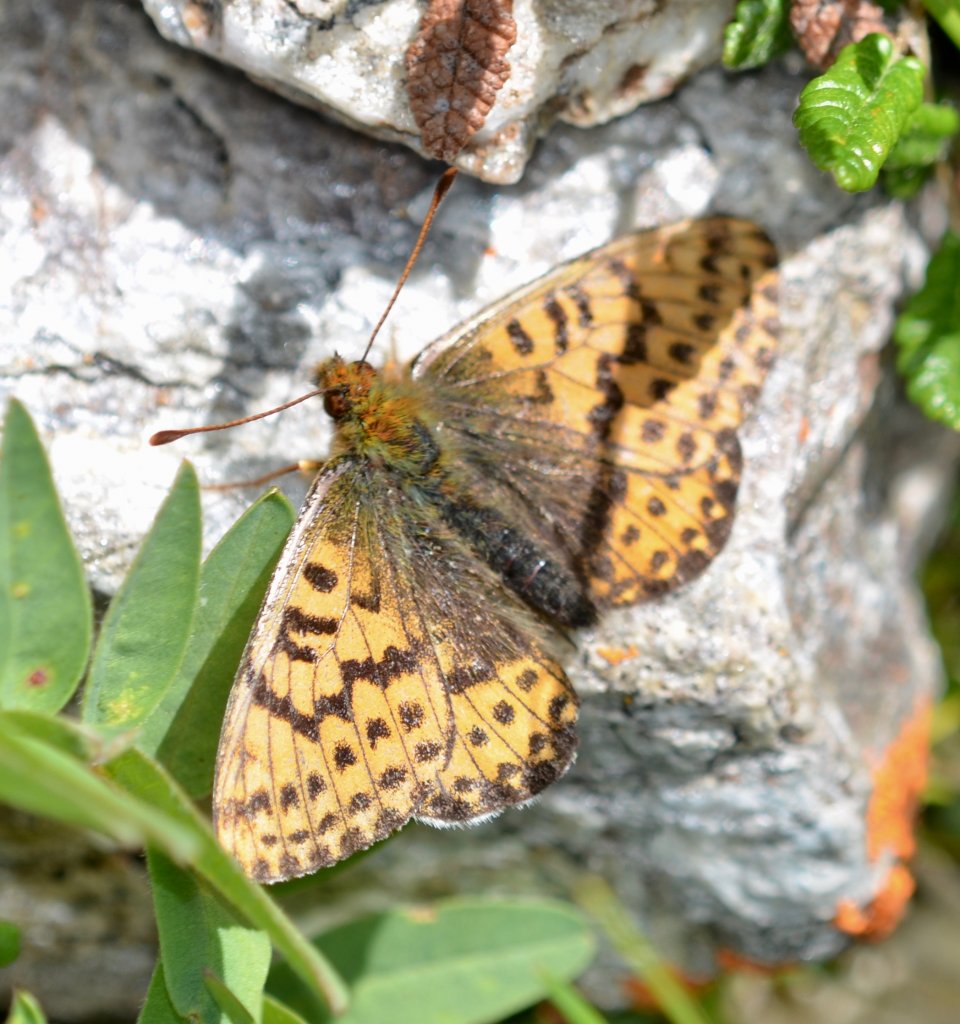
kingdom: Animalia
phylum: Arthropoda
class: Insecta
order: Lepidoptera
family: Nymphalidae
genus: Clossiana
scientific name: Clossiana polaris
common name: Polaris Fritillary
